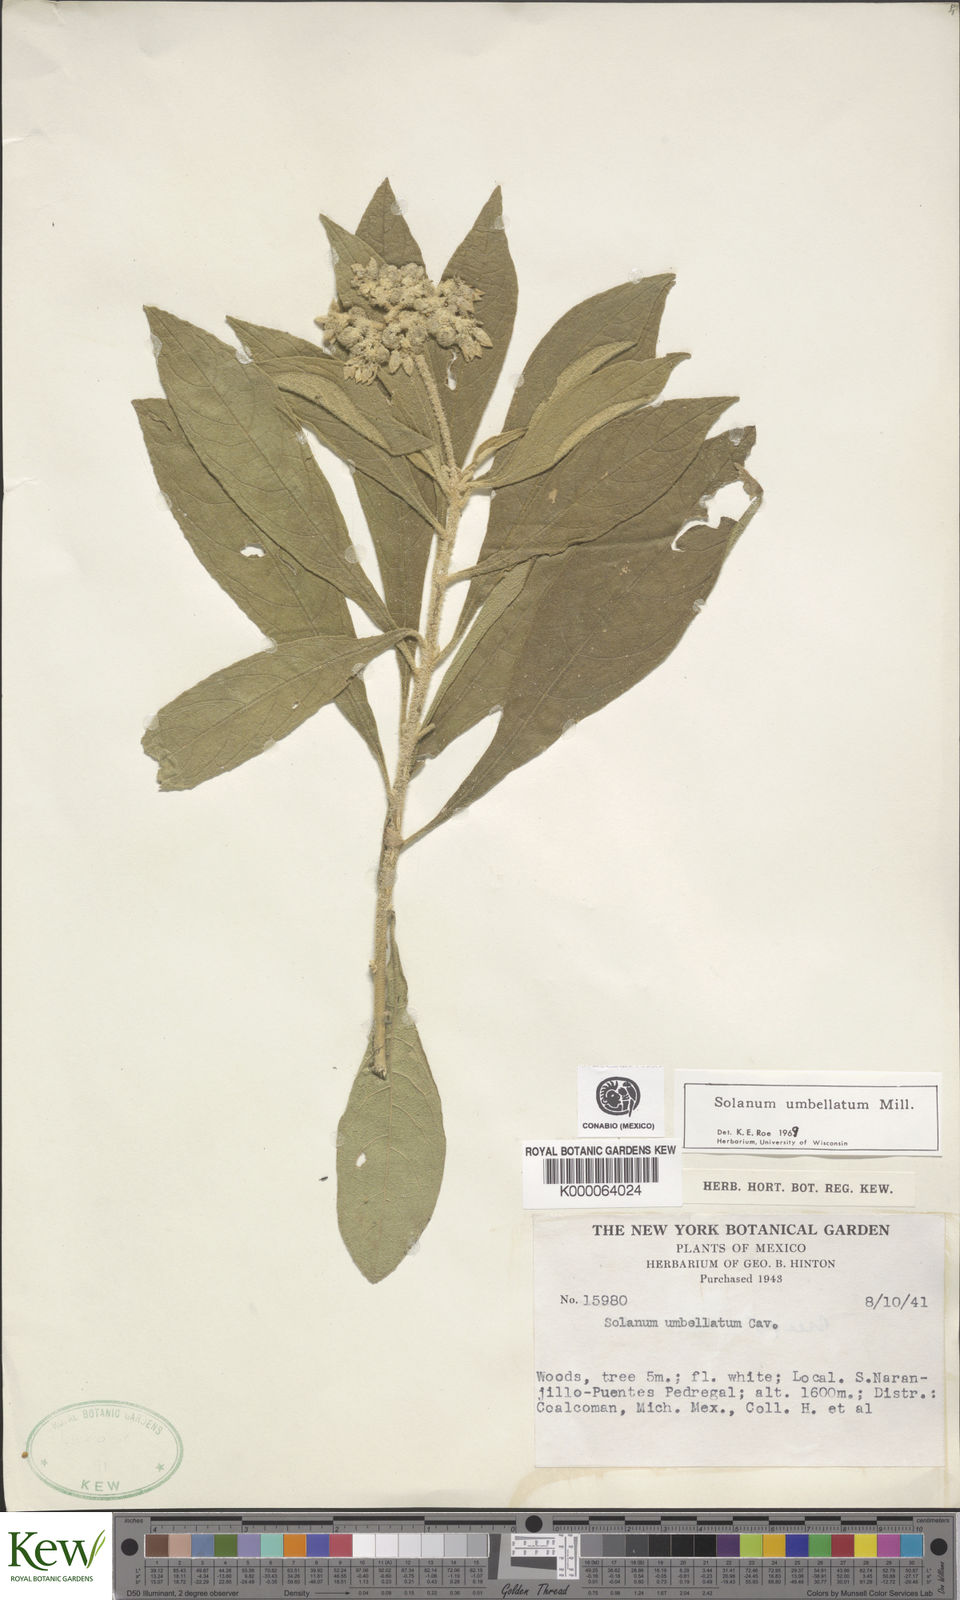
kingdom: Plantae
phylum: Tracheophyta
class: Magnoliopsida
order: Solanales
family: Solanaceae
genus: Solanum
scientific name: Solanum umbellatum
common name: Nightshade
